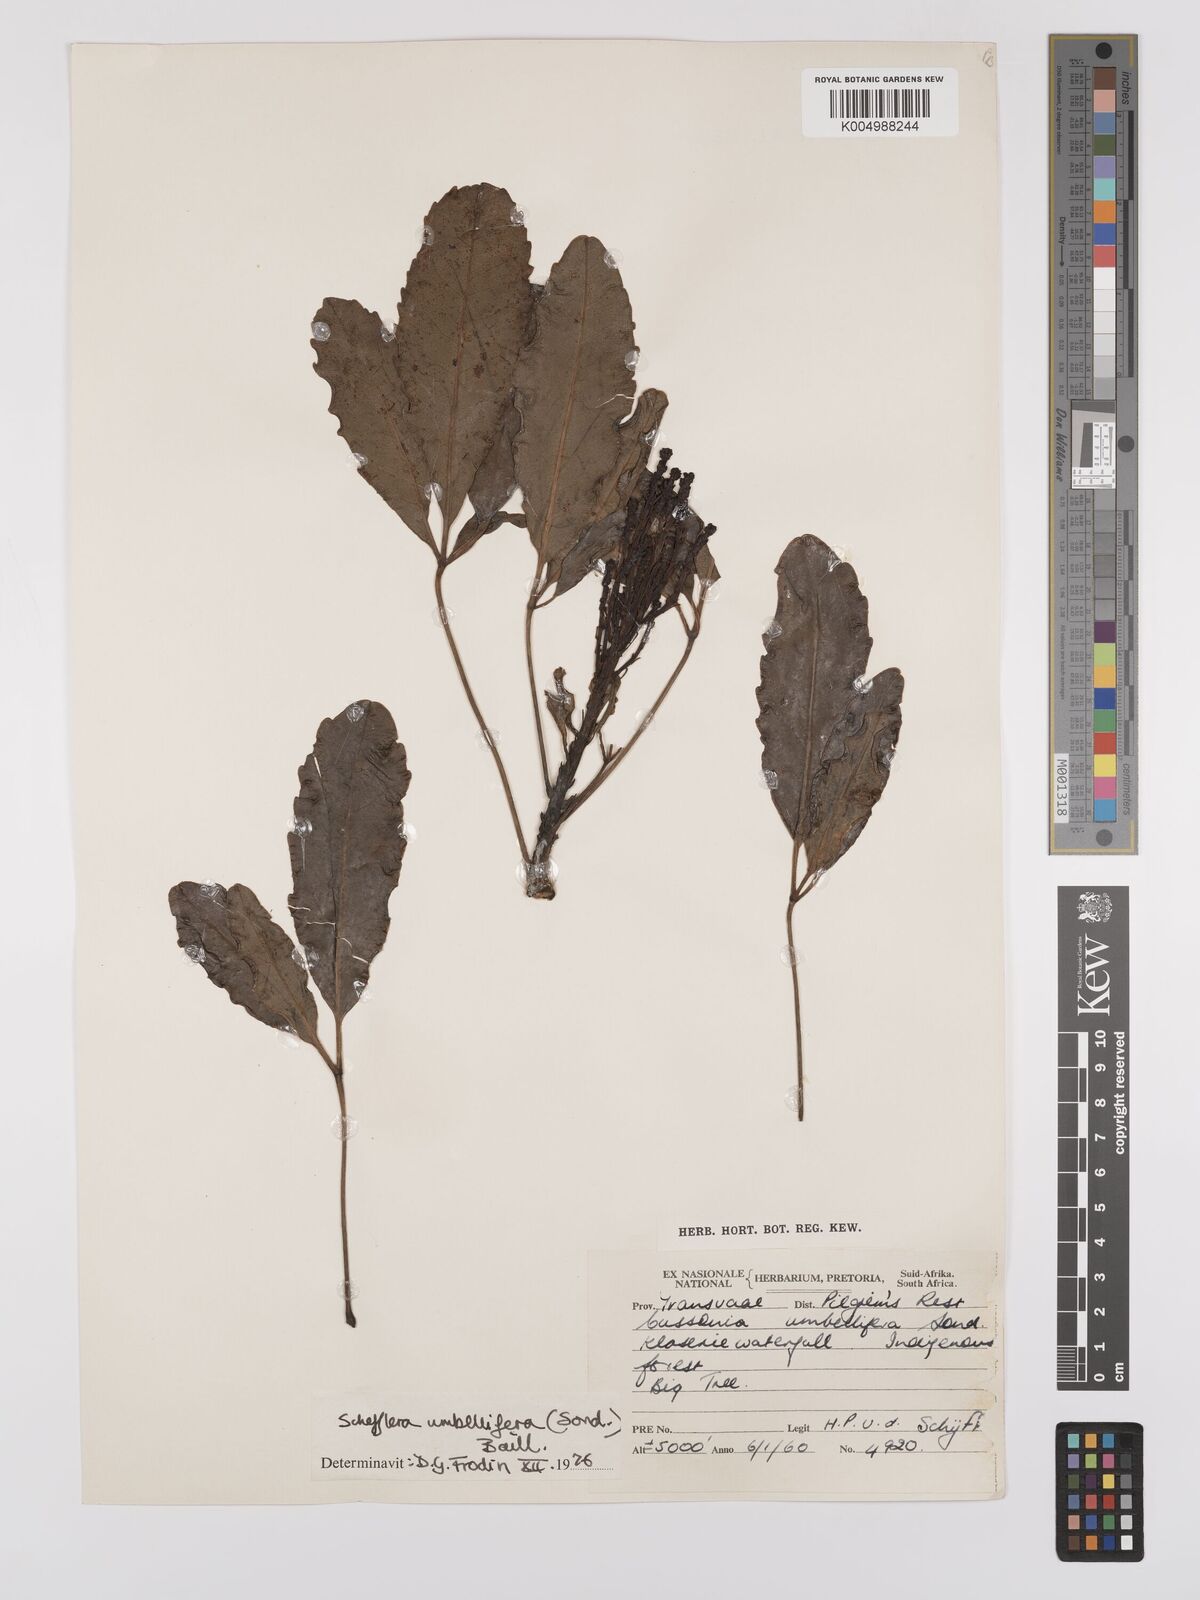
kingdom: Plantae
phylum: Tracheophyta
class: Magnoliopsida
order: Apiales
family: Araliaceae
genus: Neocussonia
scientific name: Neocussonia umbellifera
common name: False cabbage tree
